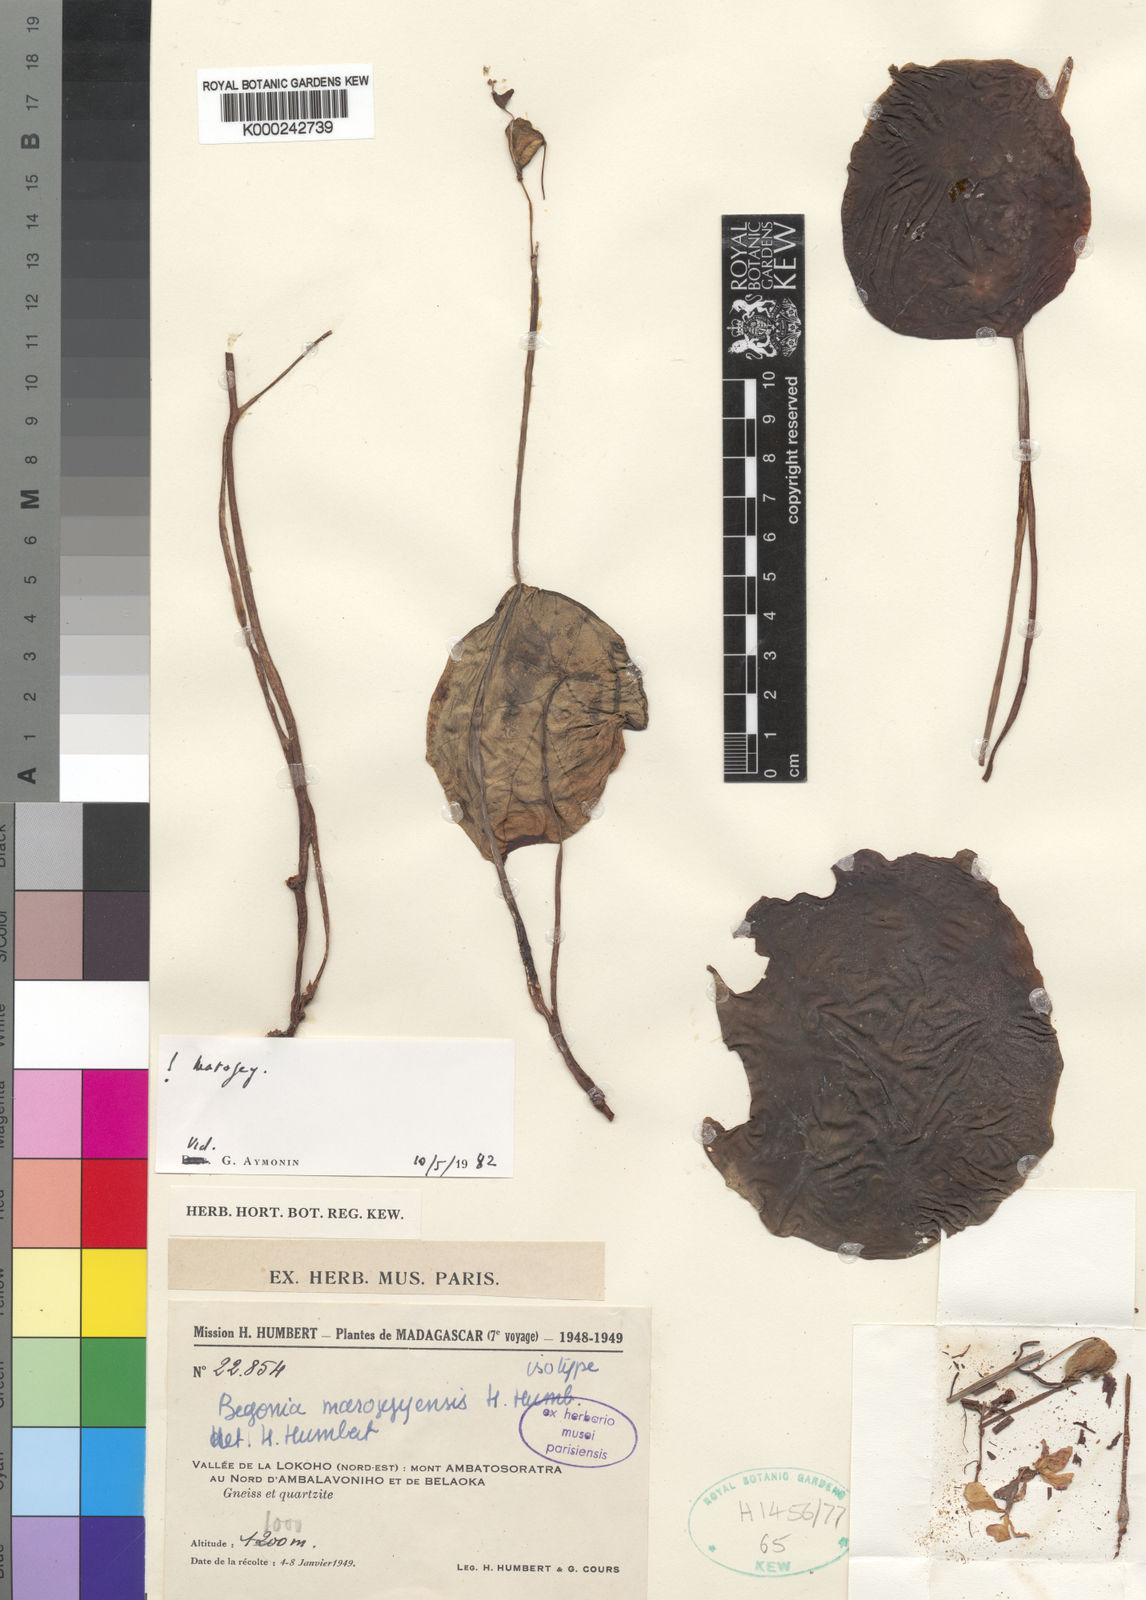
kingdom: Plantae
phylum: Tracheophyta
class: Magnoliopsida
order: Cucurbitales
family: Begoniaceae
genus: Begonia
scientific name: Begonia marojejyensis
